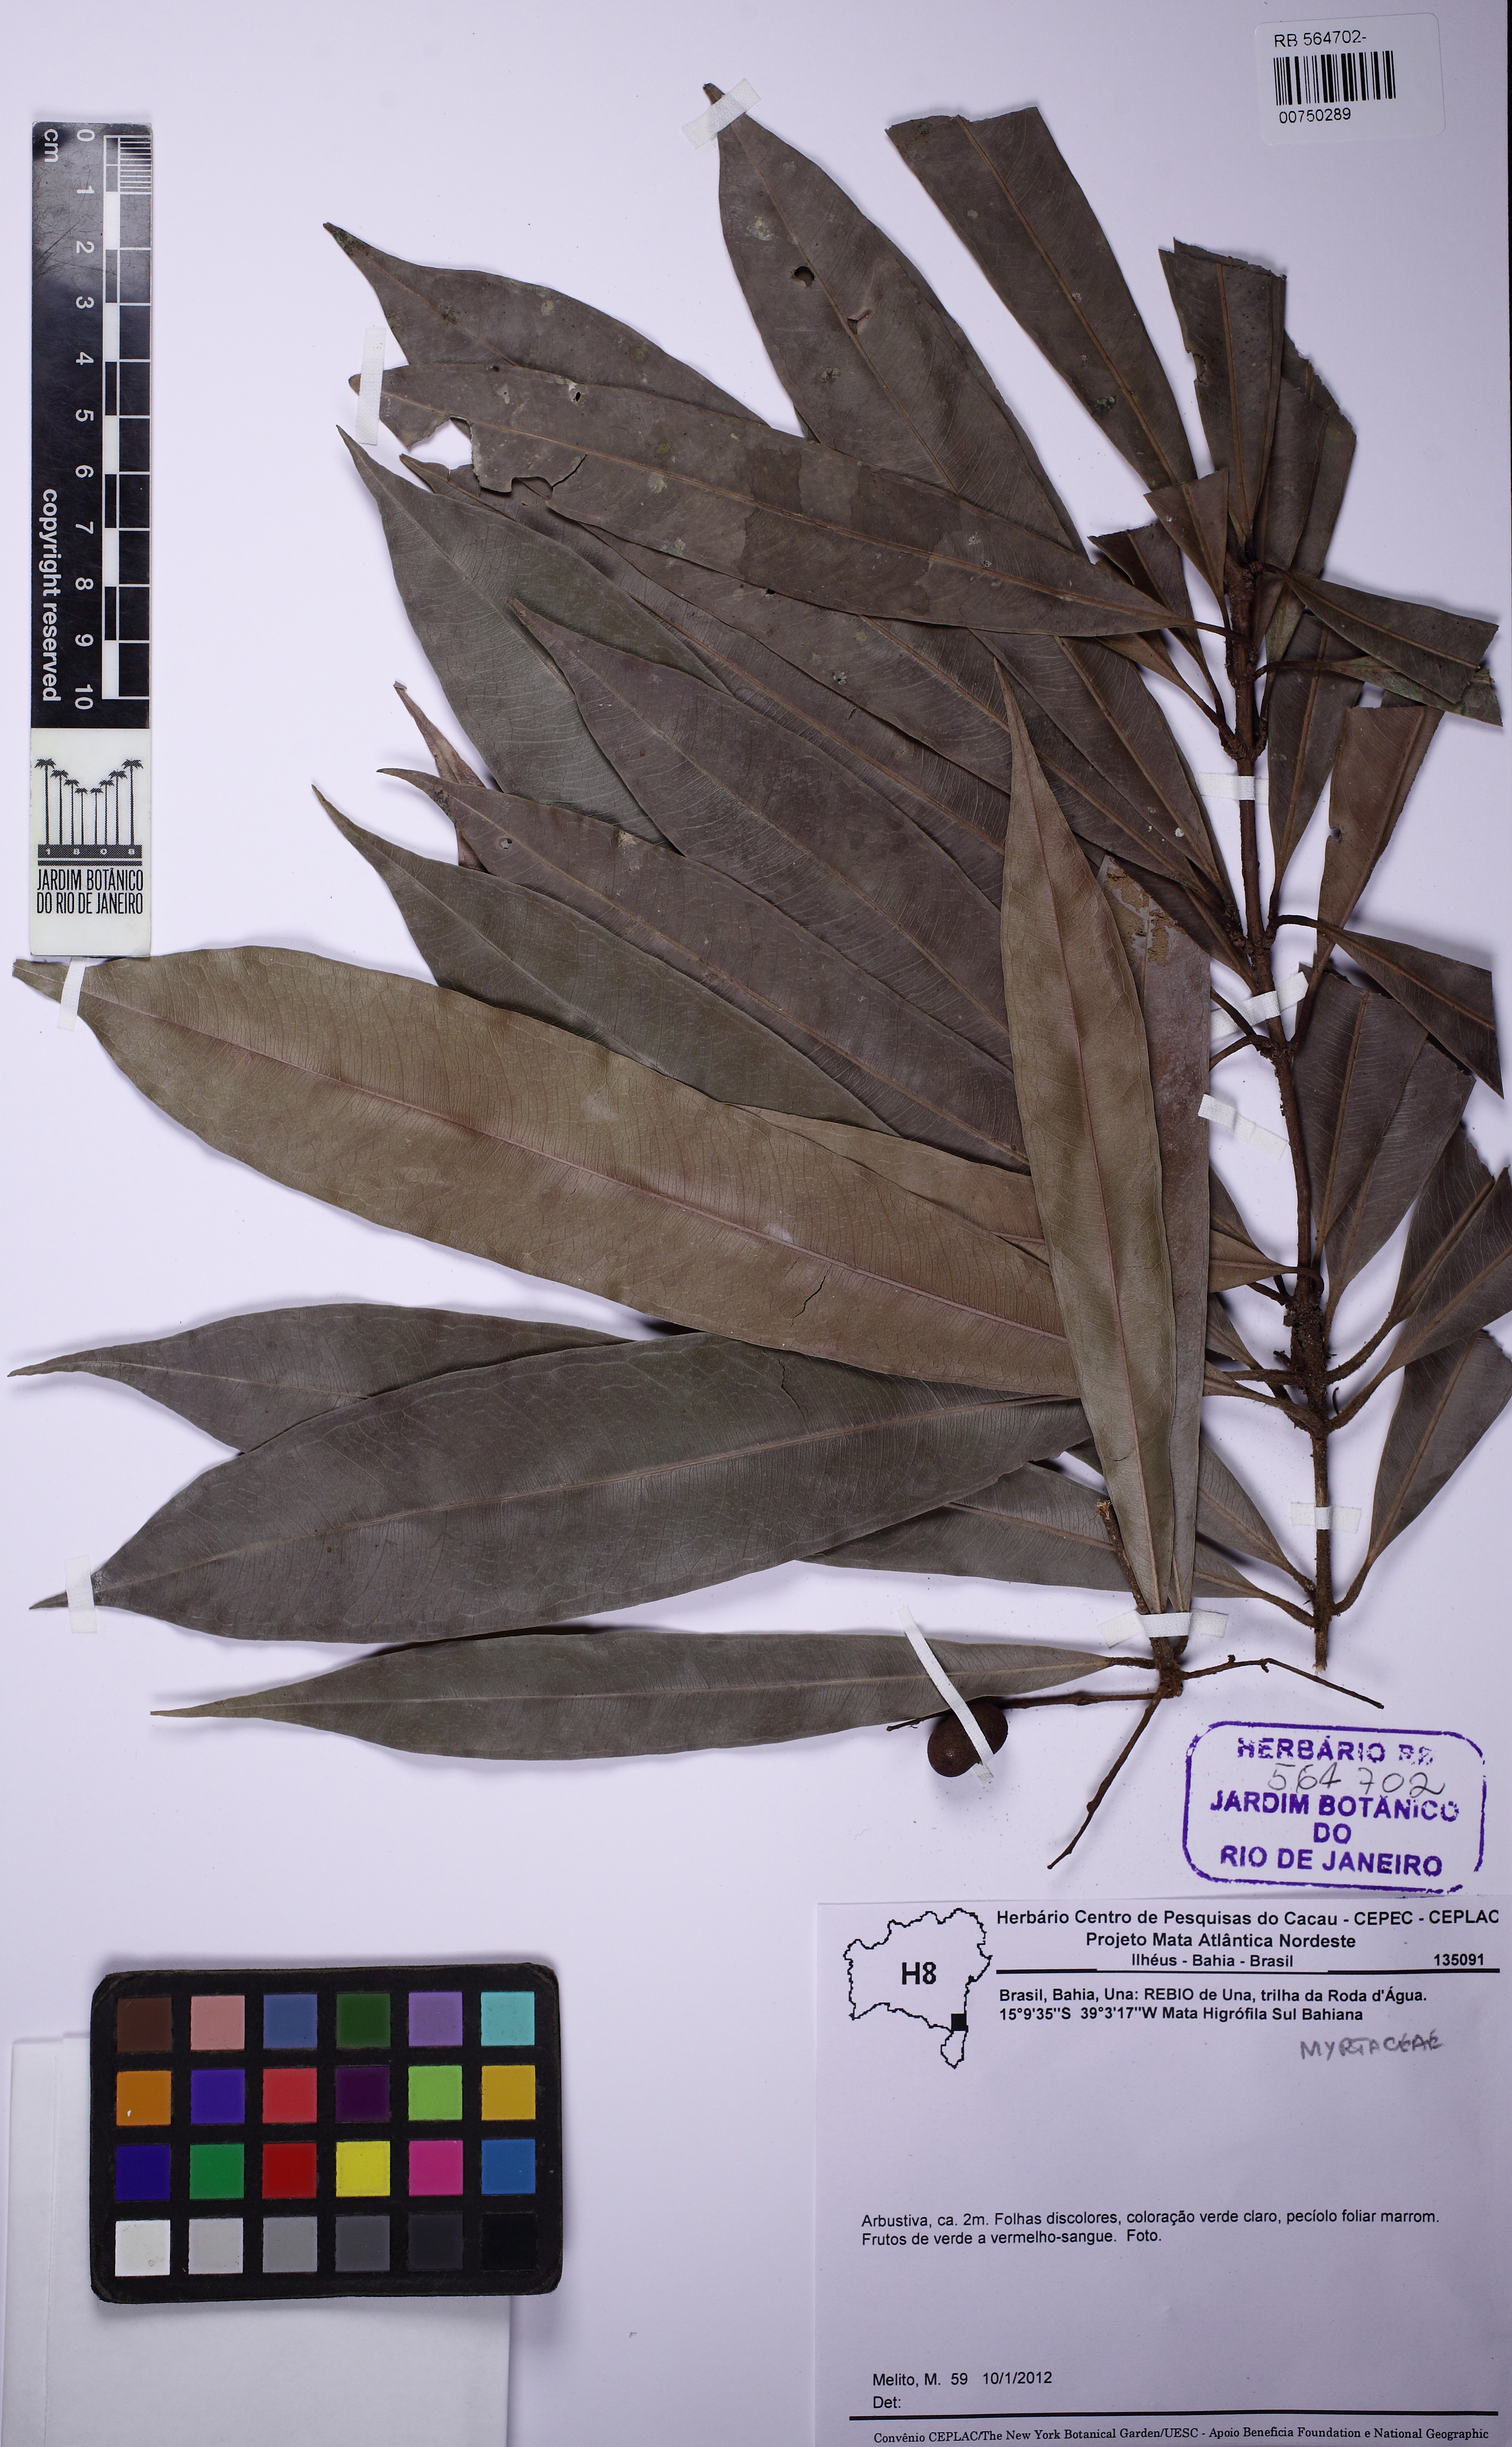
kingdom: Plantae
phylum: Tracheophyta
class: Magnoliopsida
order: Myrtales
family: Myrtaceae
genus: Myrcia
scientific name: Myrcia tetraphylla
